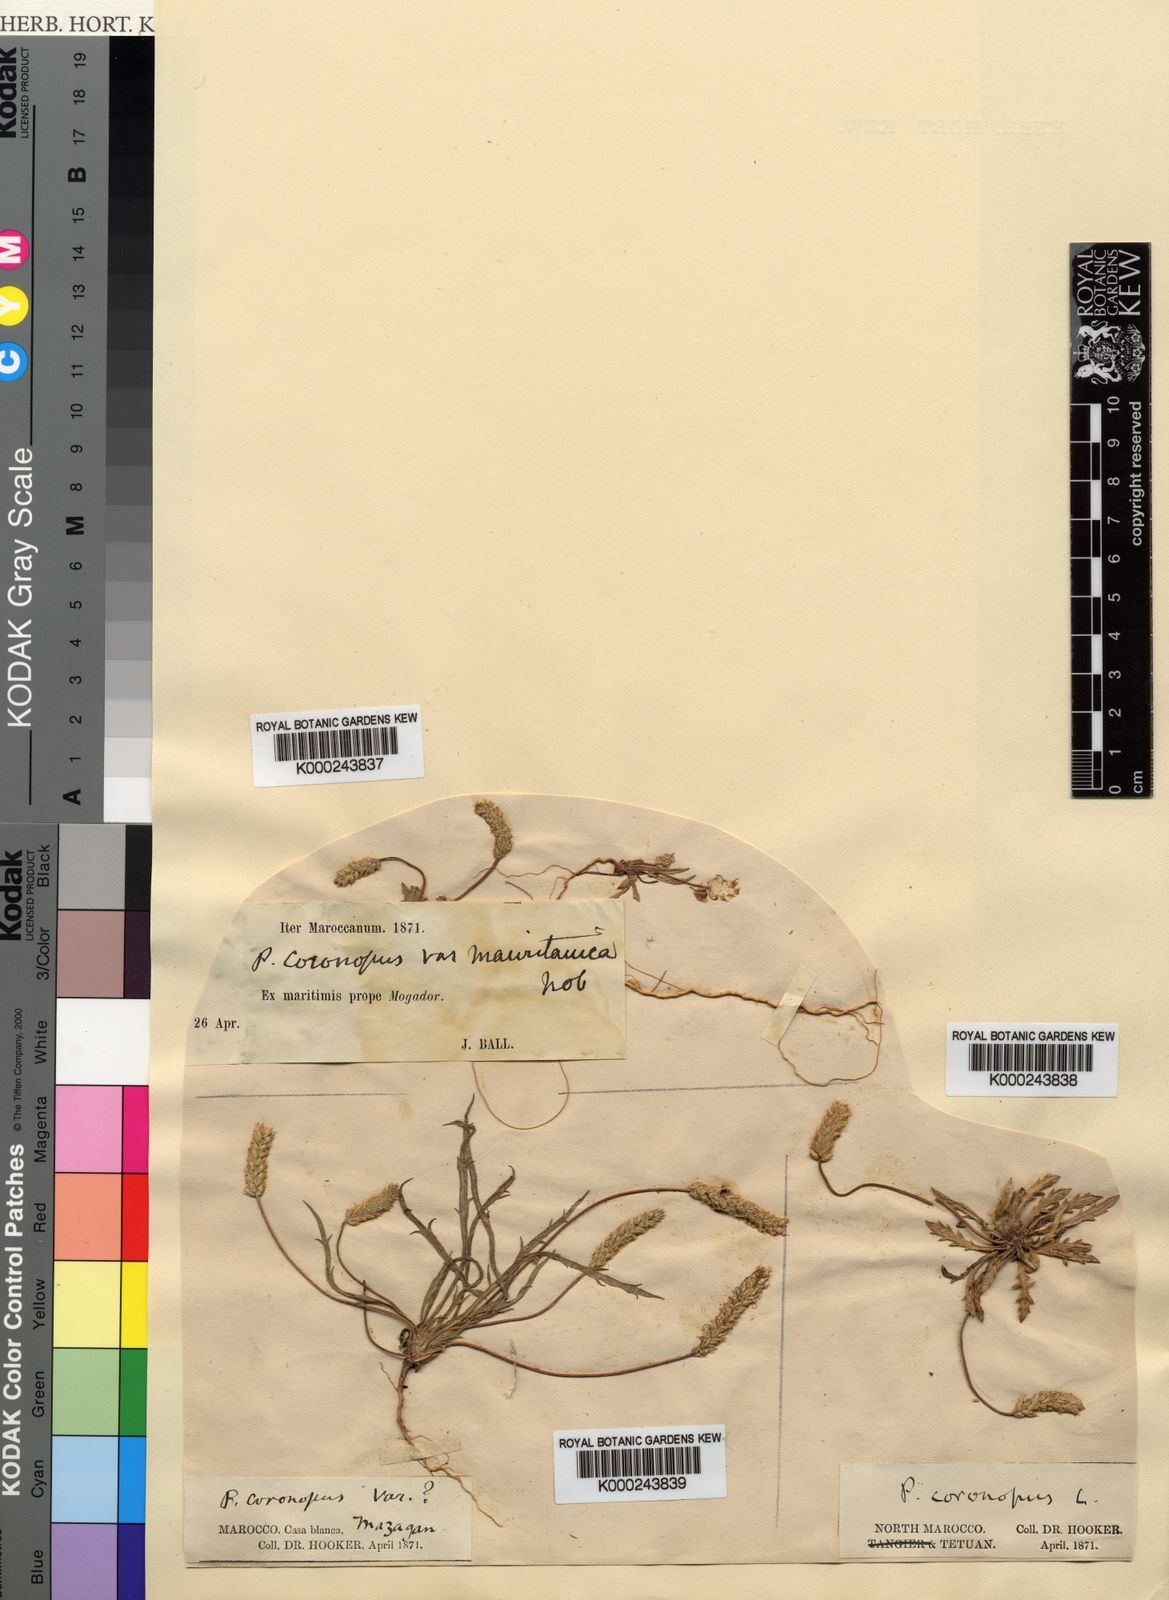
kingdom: Plantae
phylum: Tracheophyta
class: Magnoliopsida
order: Lamiales
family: Plantaginaceae
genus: Plantago
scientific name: Plantago coronopus
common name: Buck's-horn plantain
